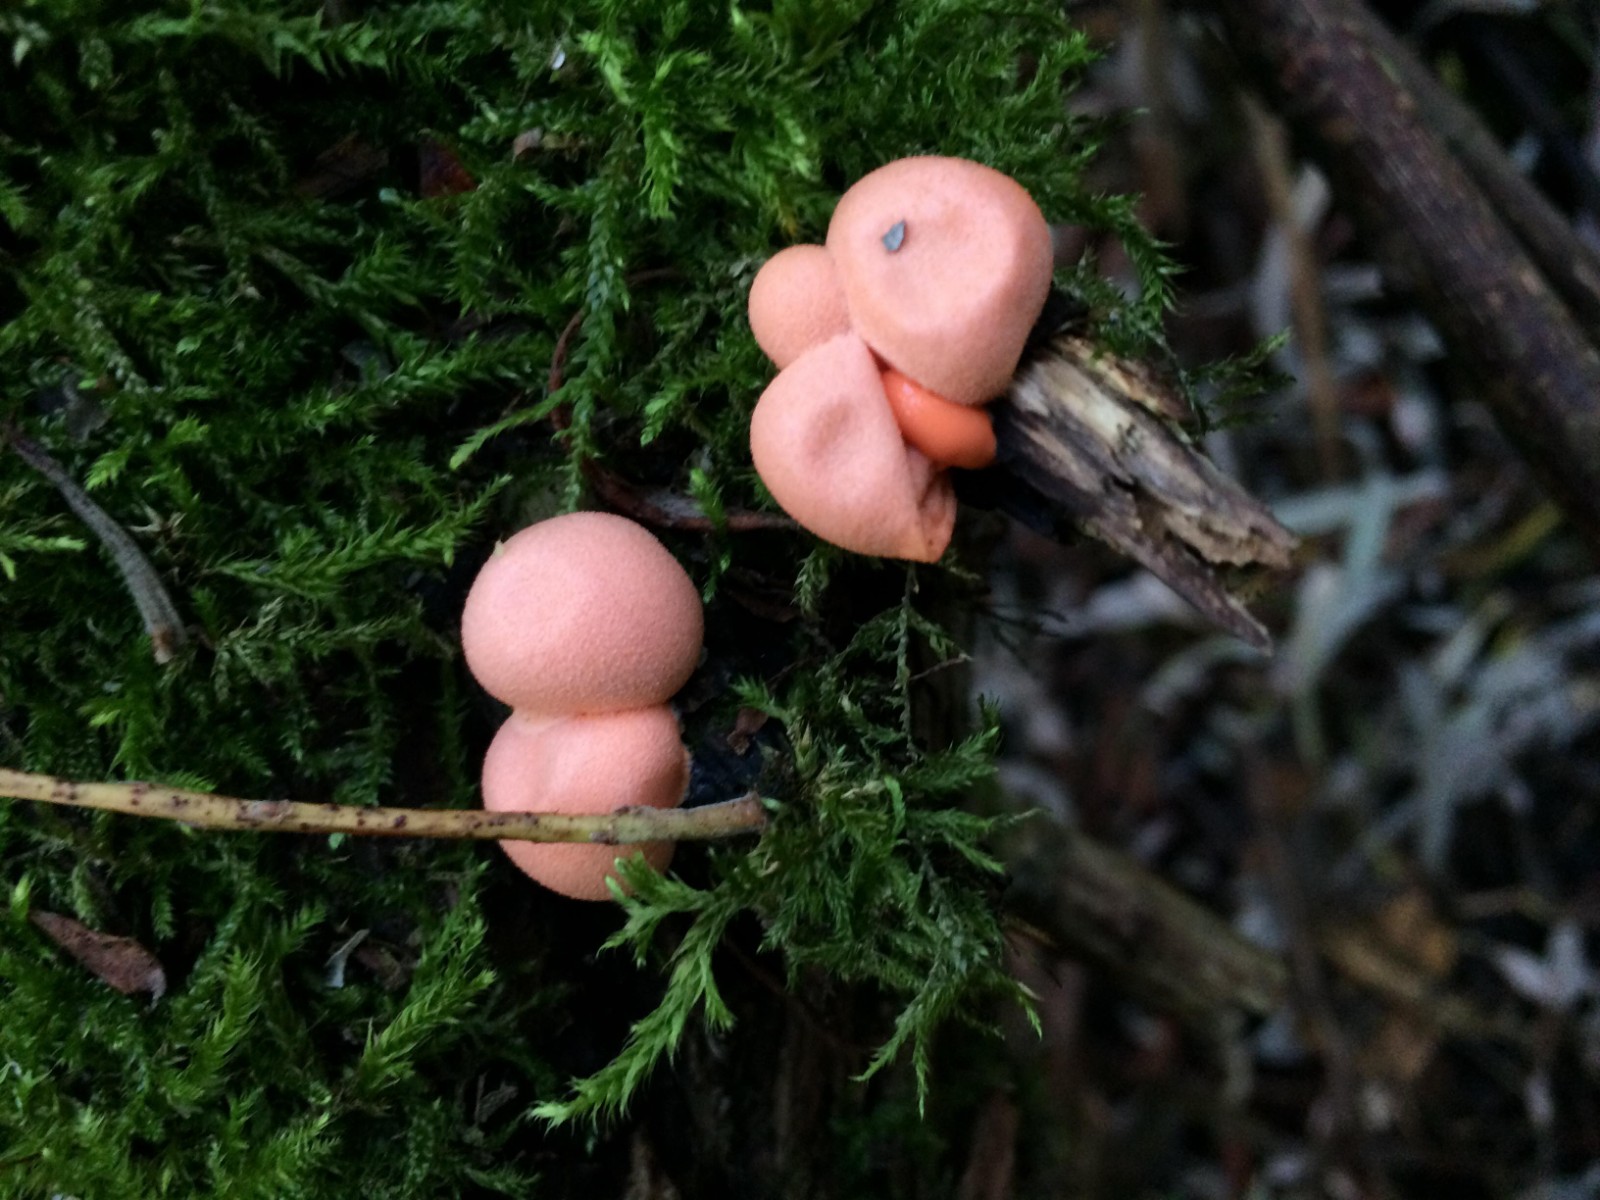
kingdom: Protozoa
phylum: Mycetozoa
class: Myxomycetes
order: Cribrariales
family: Tubiferaceae
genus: Lycogala
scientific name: Lycogala epidendrum
